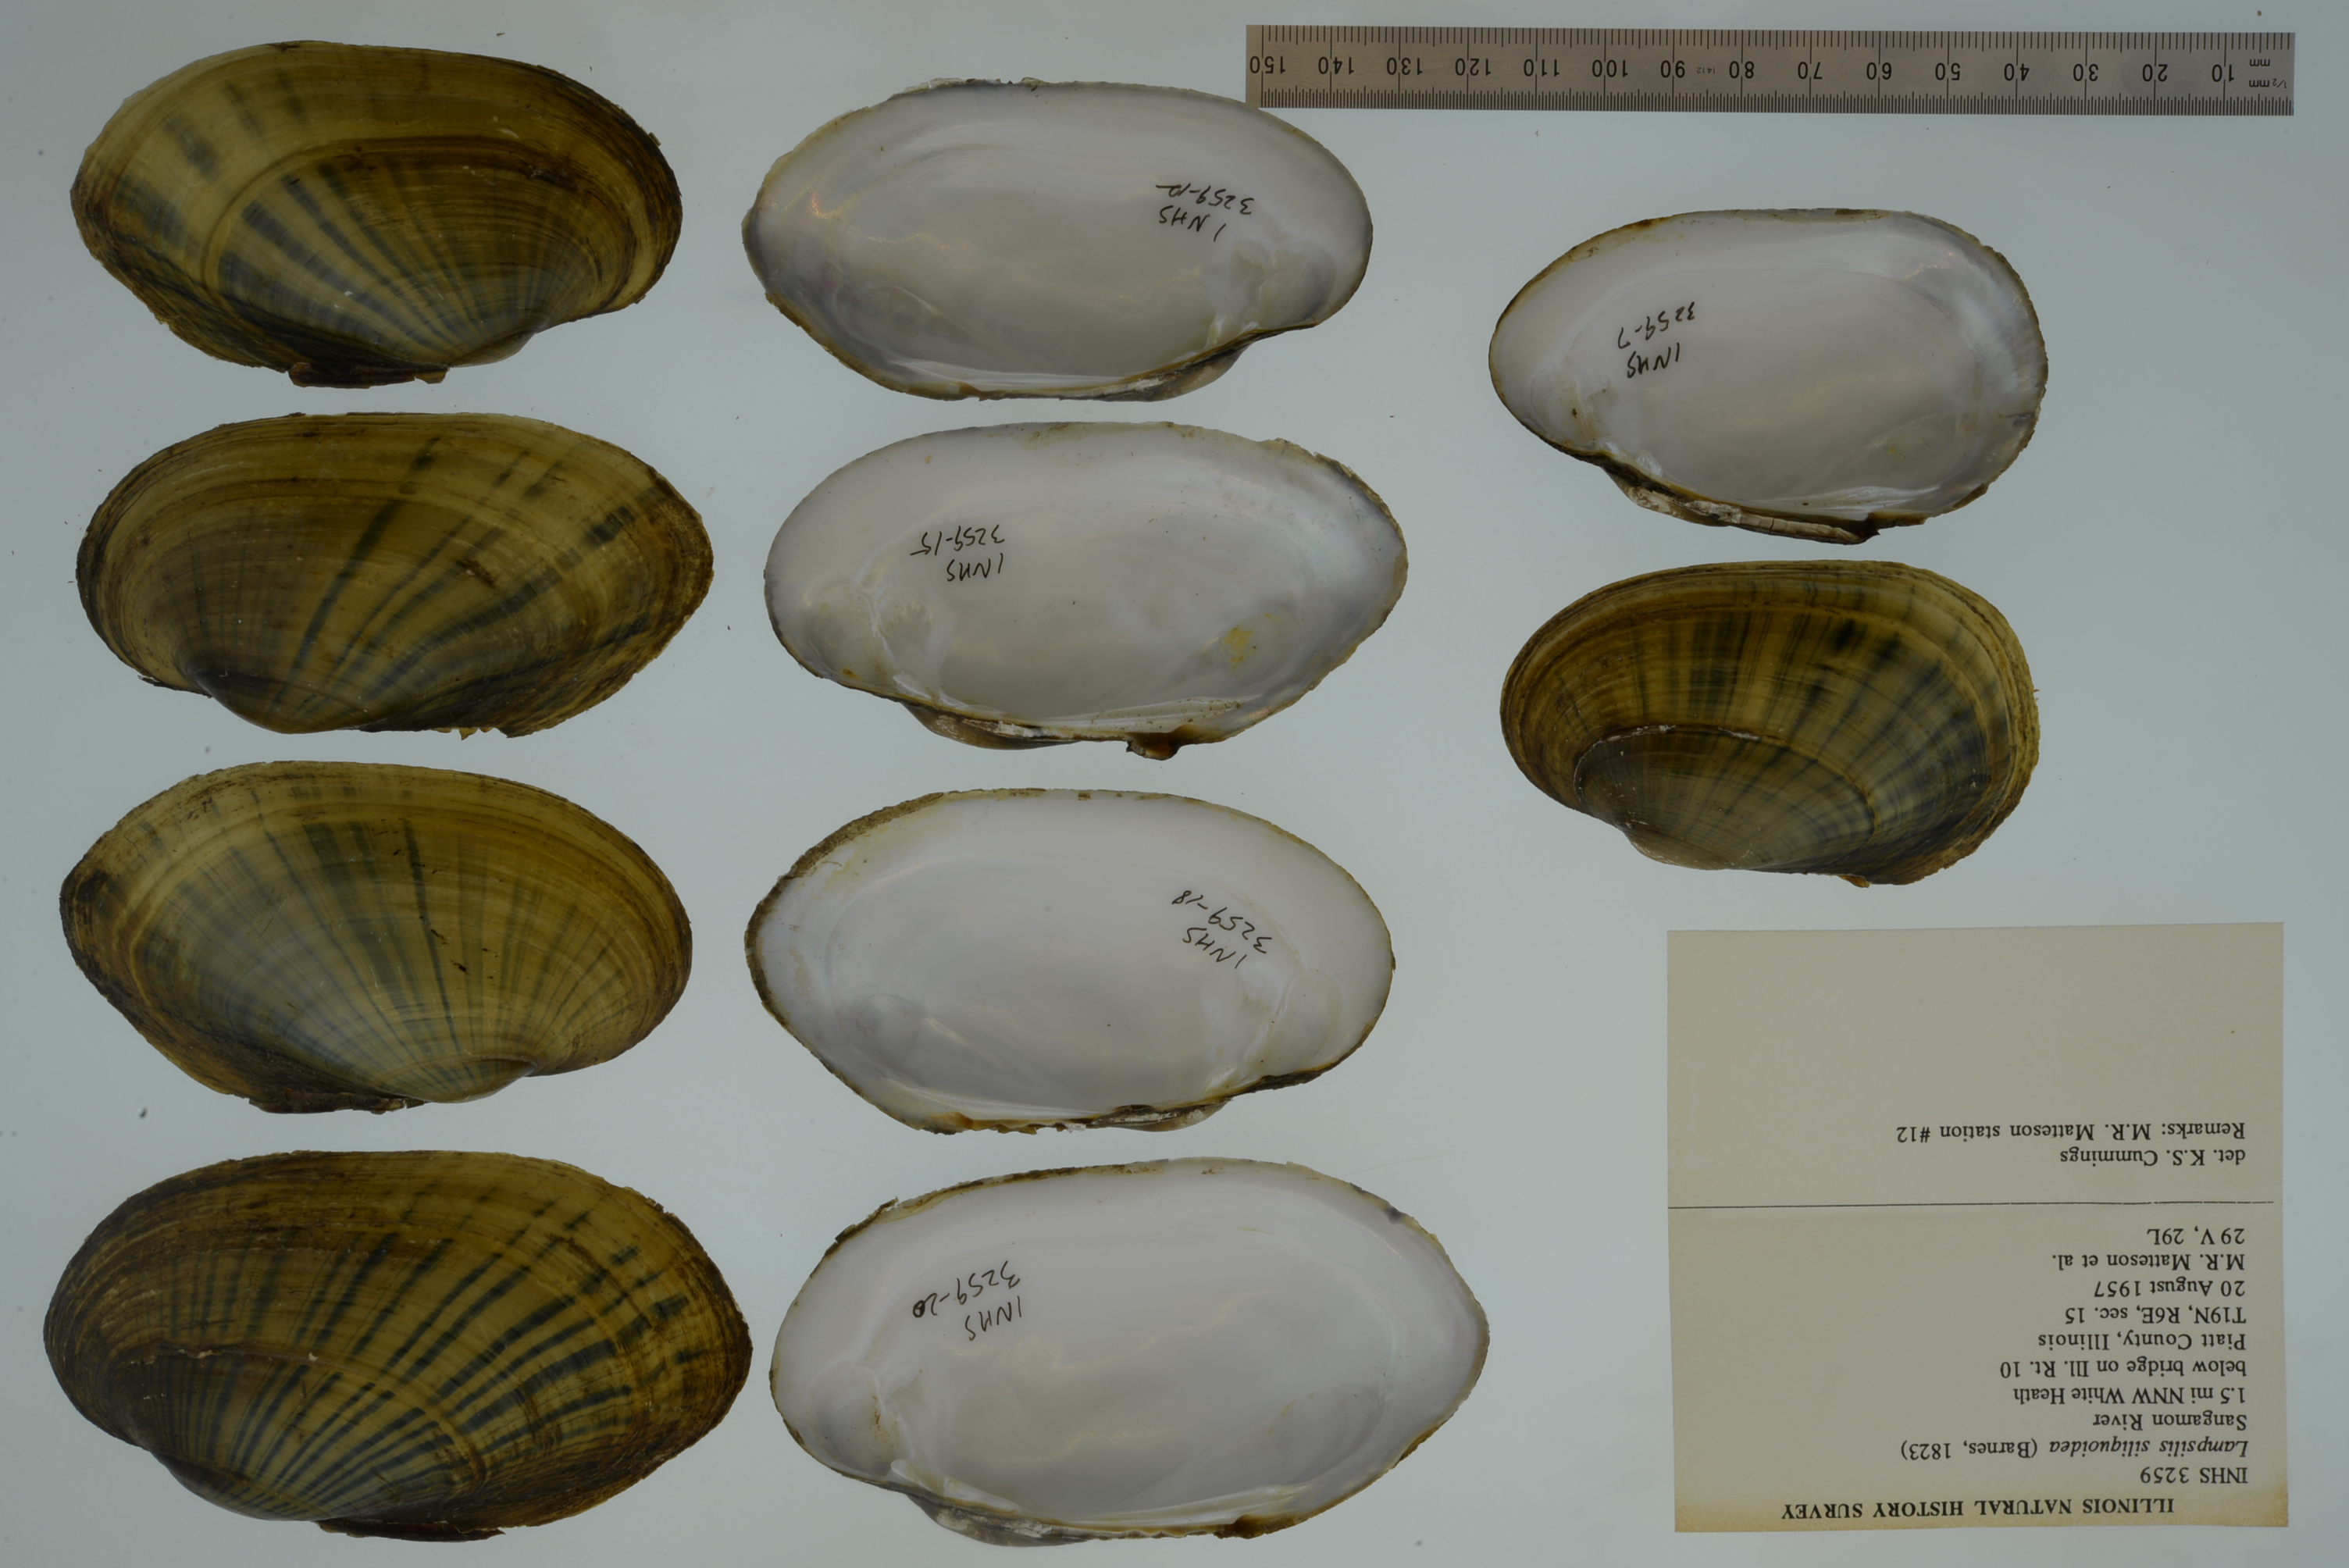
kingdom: Animalia
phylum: Mollusca
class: Bivalvia
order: Unionida
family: Unionidae
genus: Lampsilis
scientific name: Lampsilis siliquoidea
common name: Fatmucket
